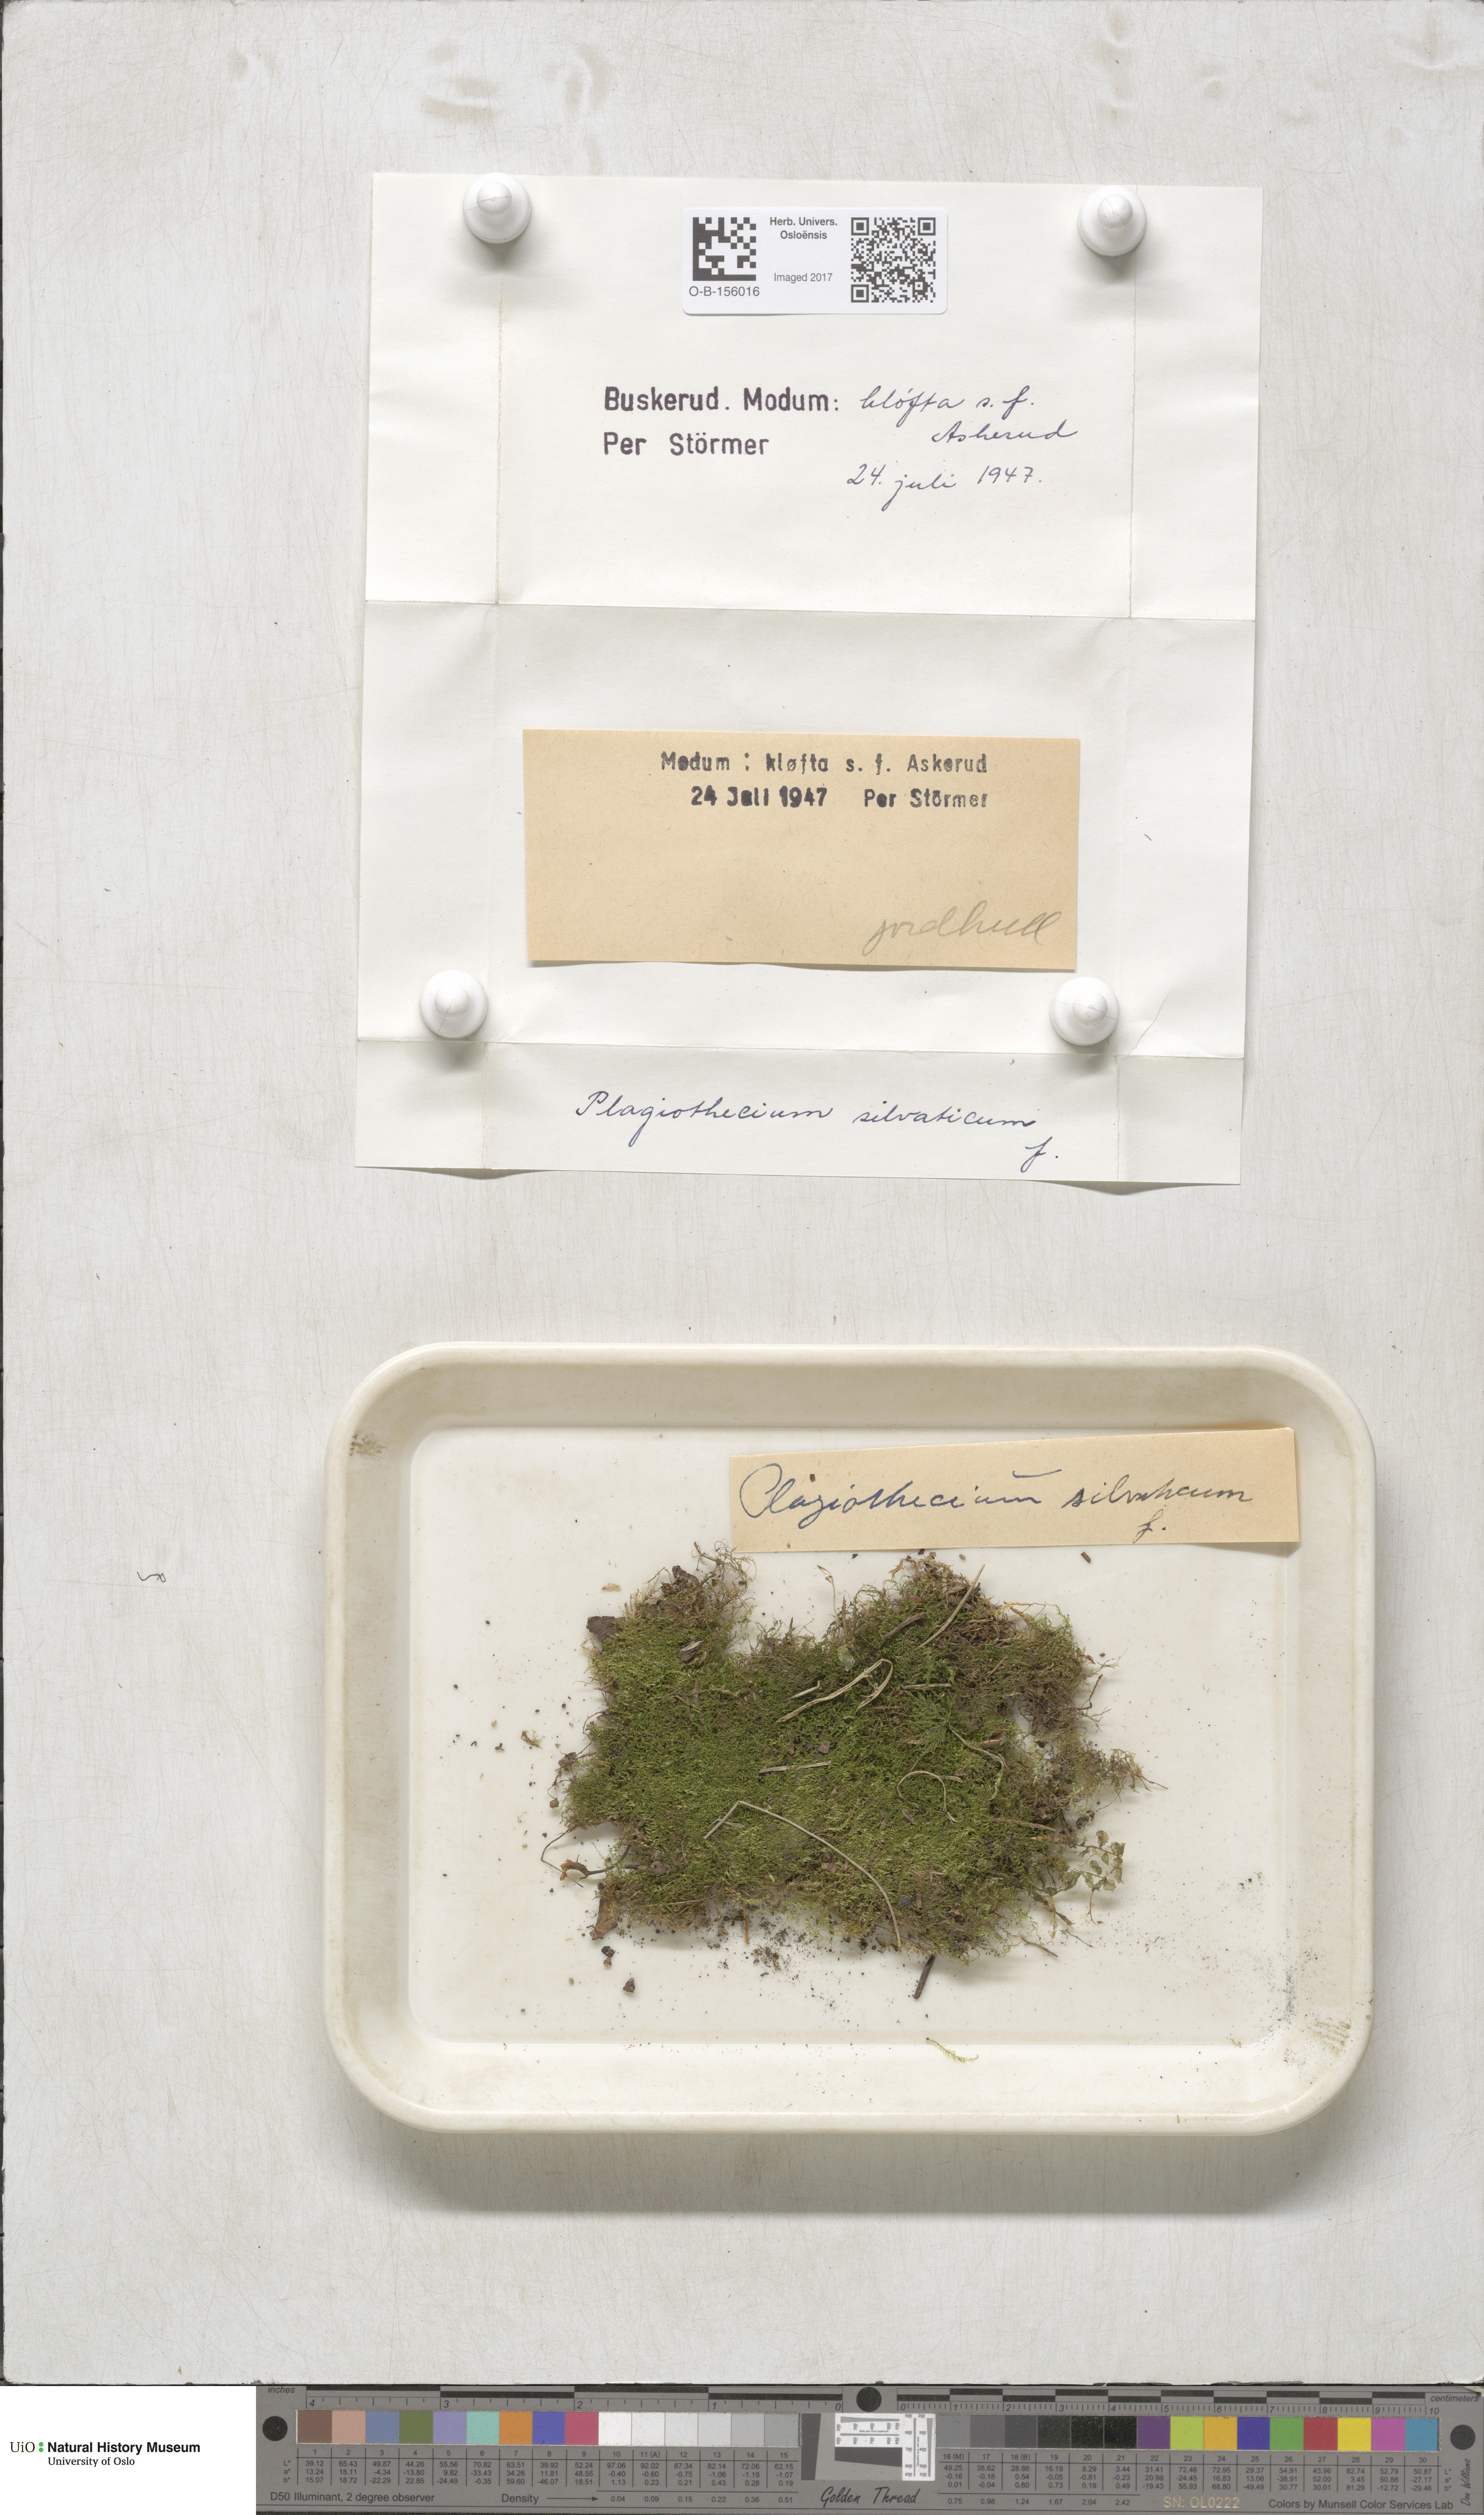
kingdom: Plantae
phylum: Bryophyta
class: Bryopsida
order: Hypnales
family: Plagiotheciaceae
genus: Plagiothecium
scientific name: Plagiothecium nemorale
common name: Woodsy silk-moss
